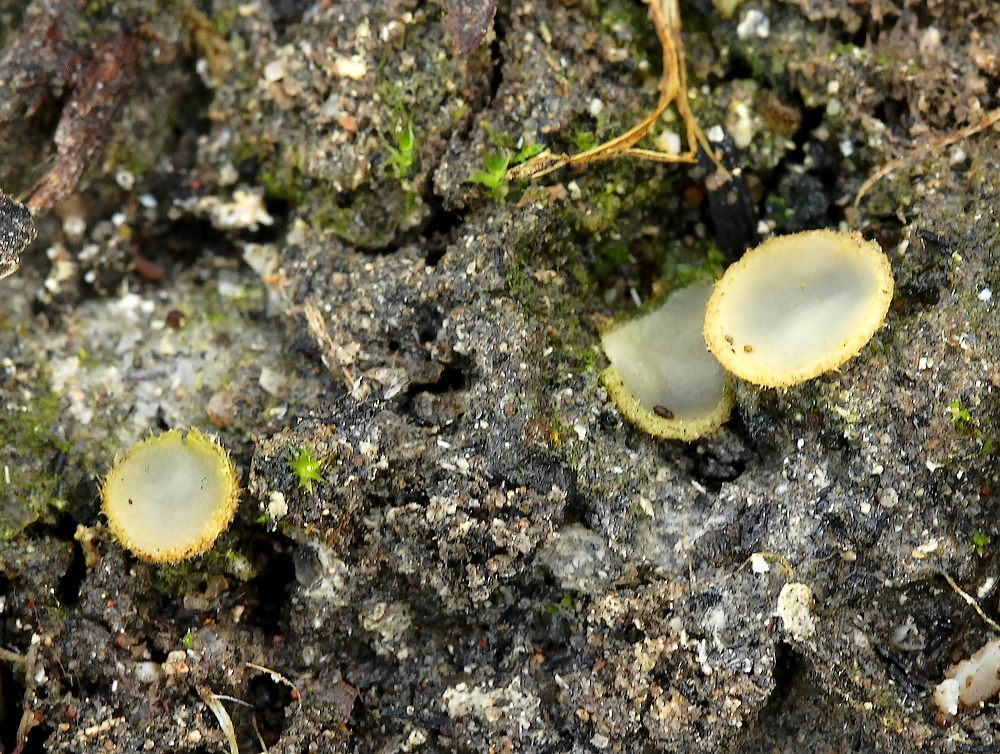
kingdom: Fungi
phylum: Ascomycota
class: Pezizomycetes
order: Pezizales
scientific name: Pezizales
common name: bægersvampordenen
